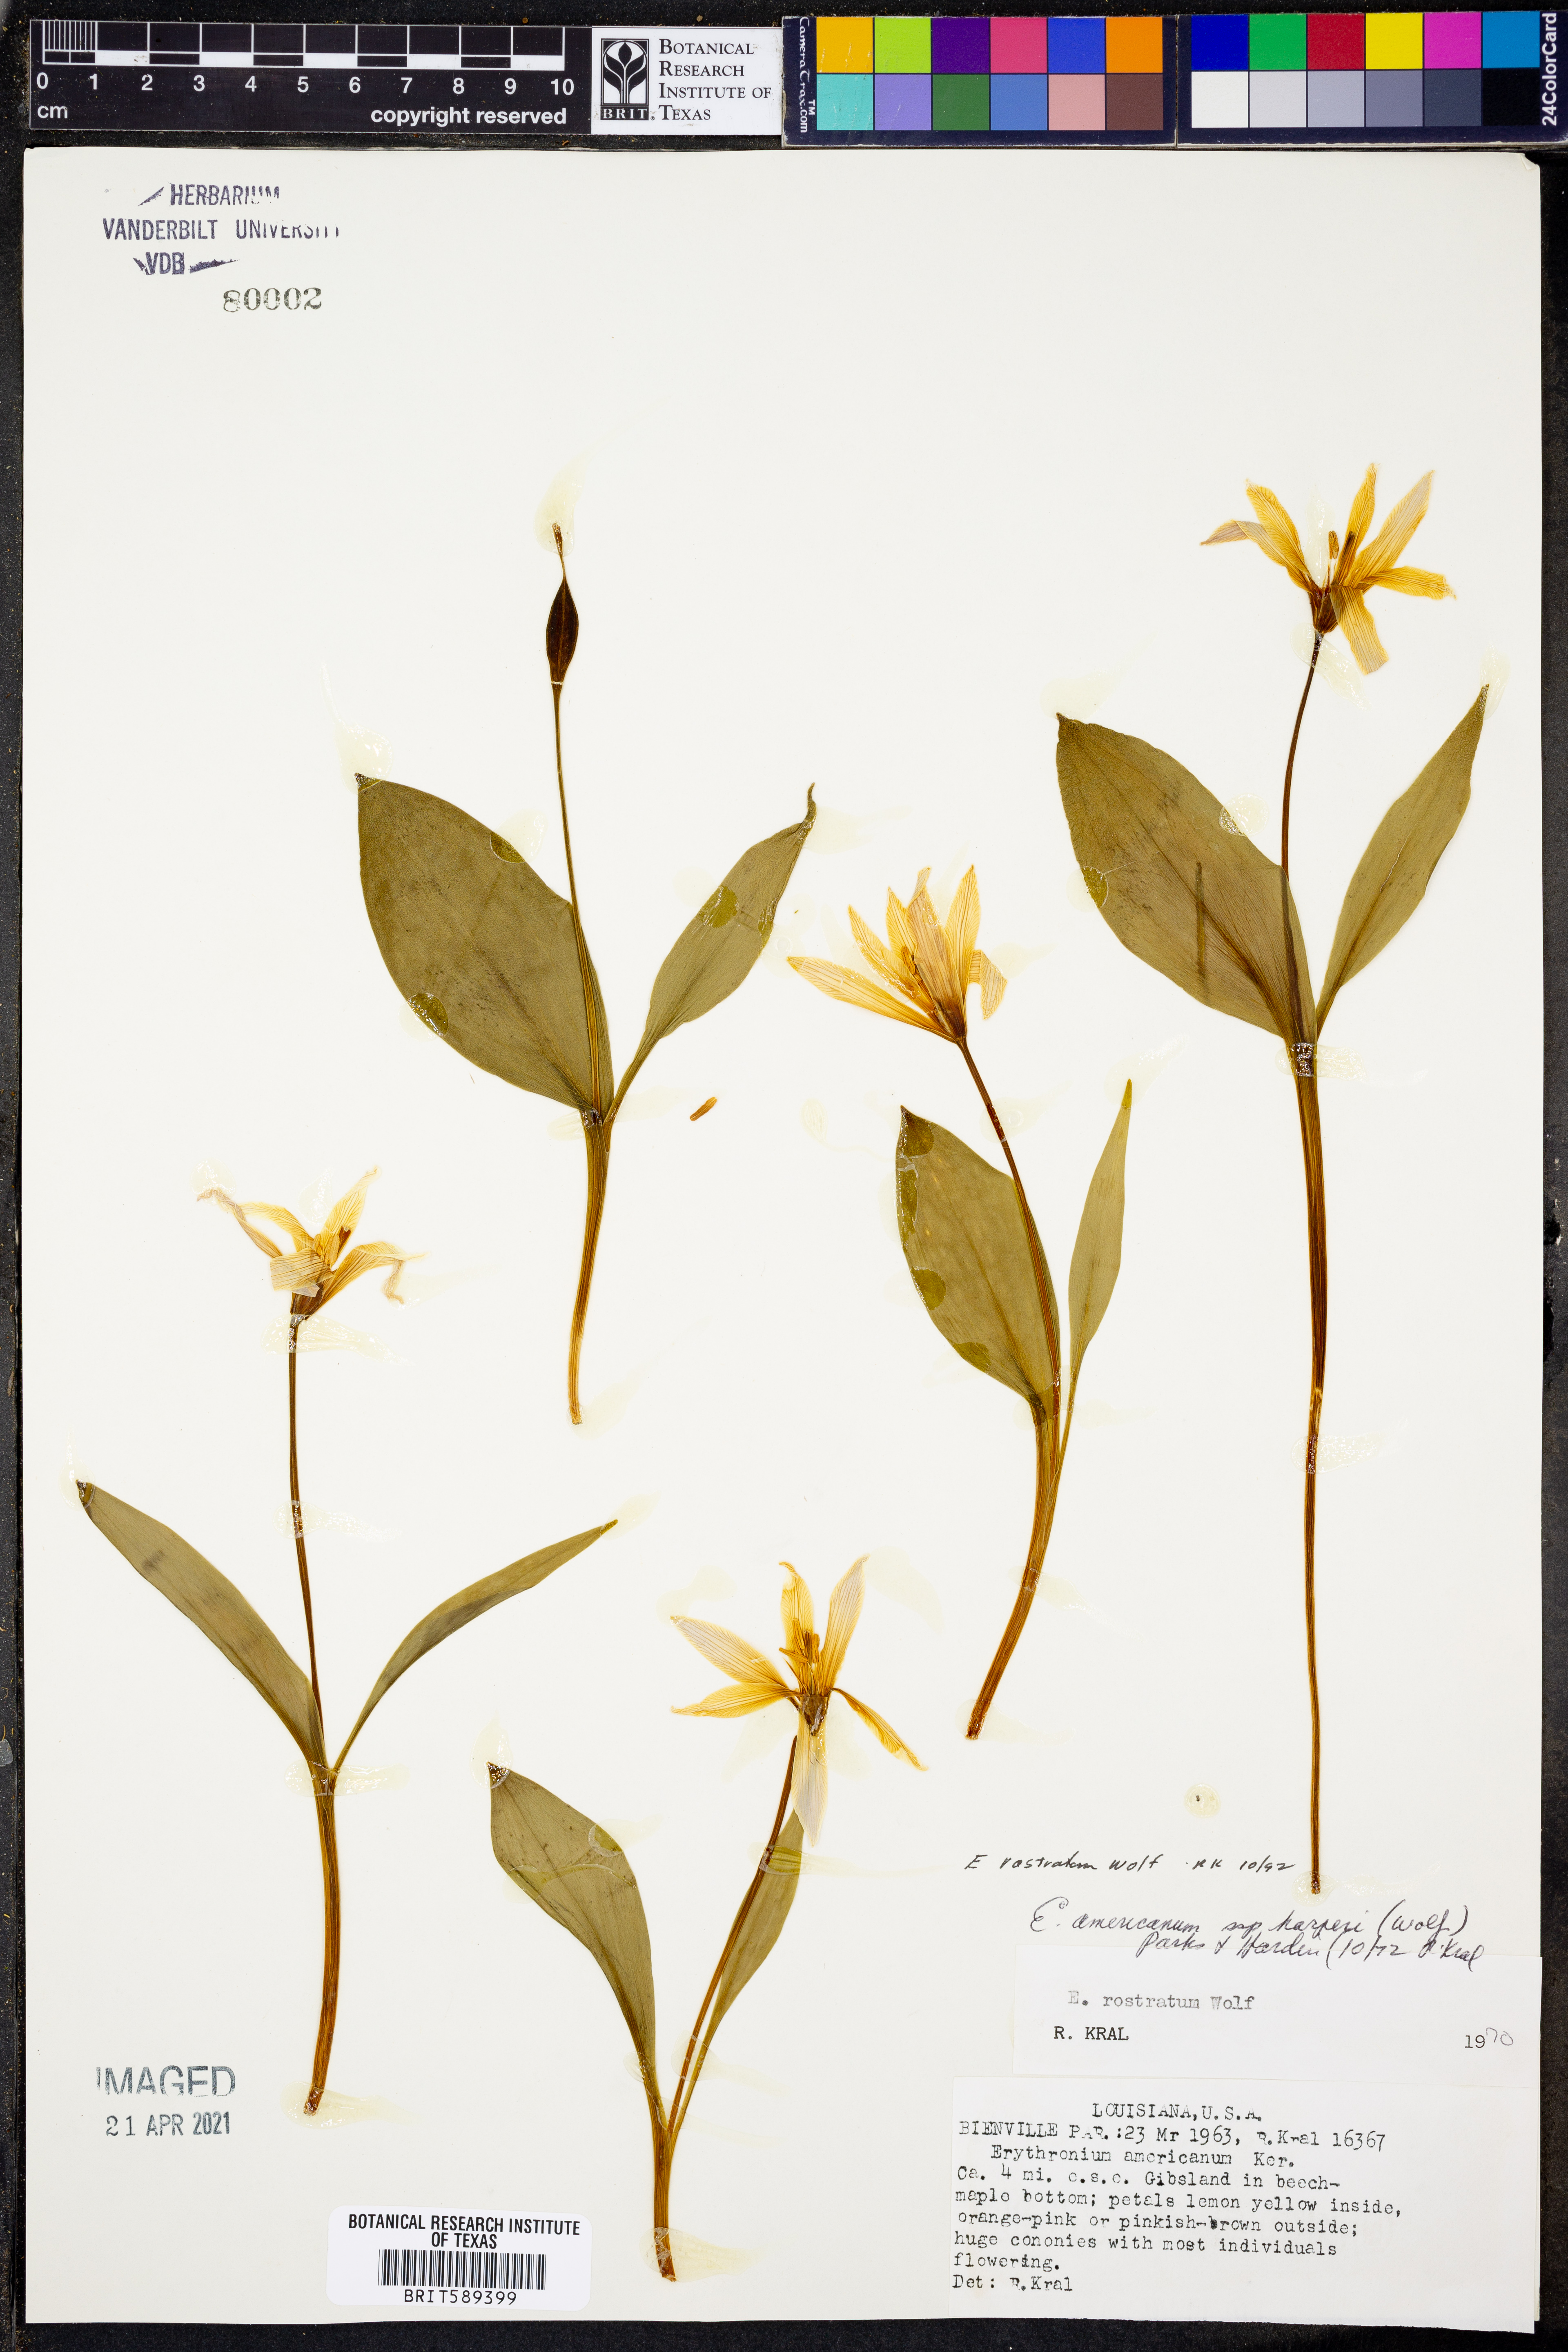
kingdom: Plantae
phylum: Tracheophyta
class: Liliopsida
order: Liliales
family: Liliaceae
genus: Erythronium
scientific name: Erythronium rostratum
